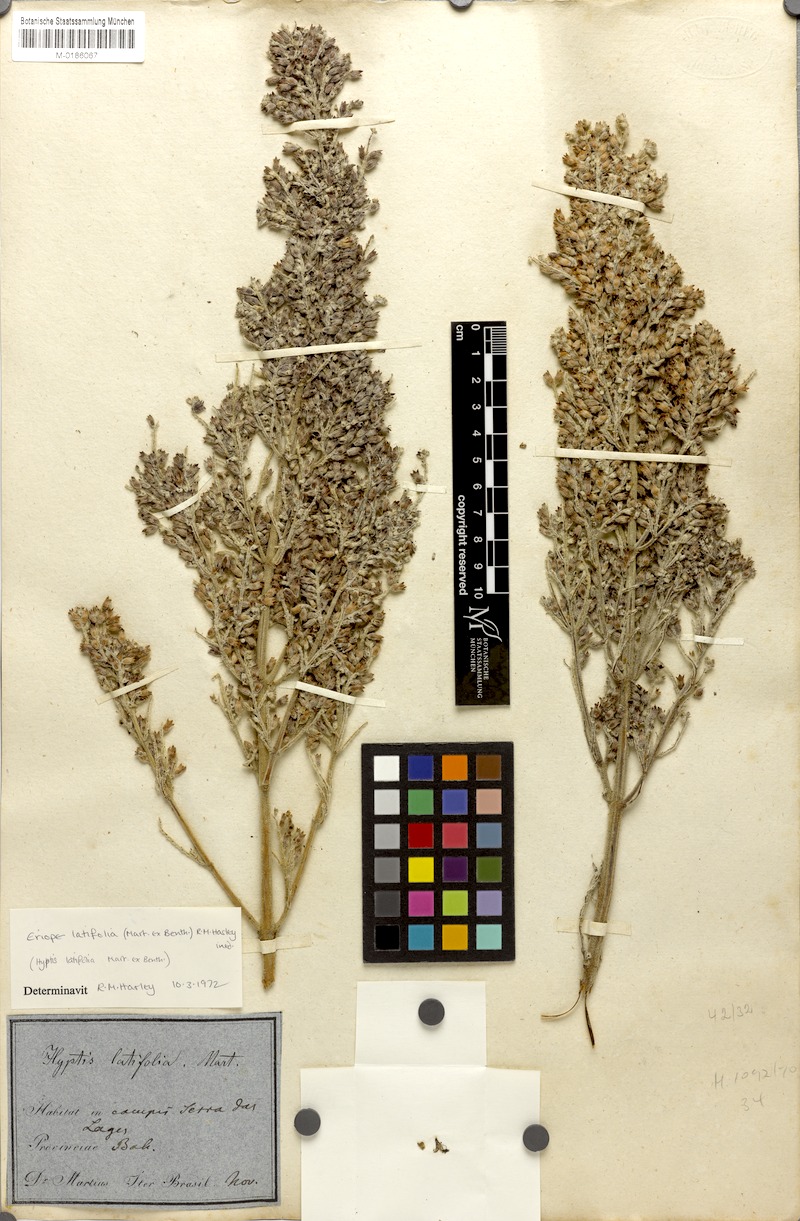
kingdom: Plantae
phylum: Tracheophyta
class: Magnoliopsida
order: Lamiales
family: Lamiaceae
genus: Eriope
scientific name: Eriope latifolia
